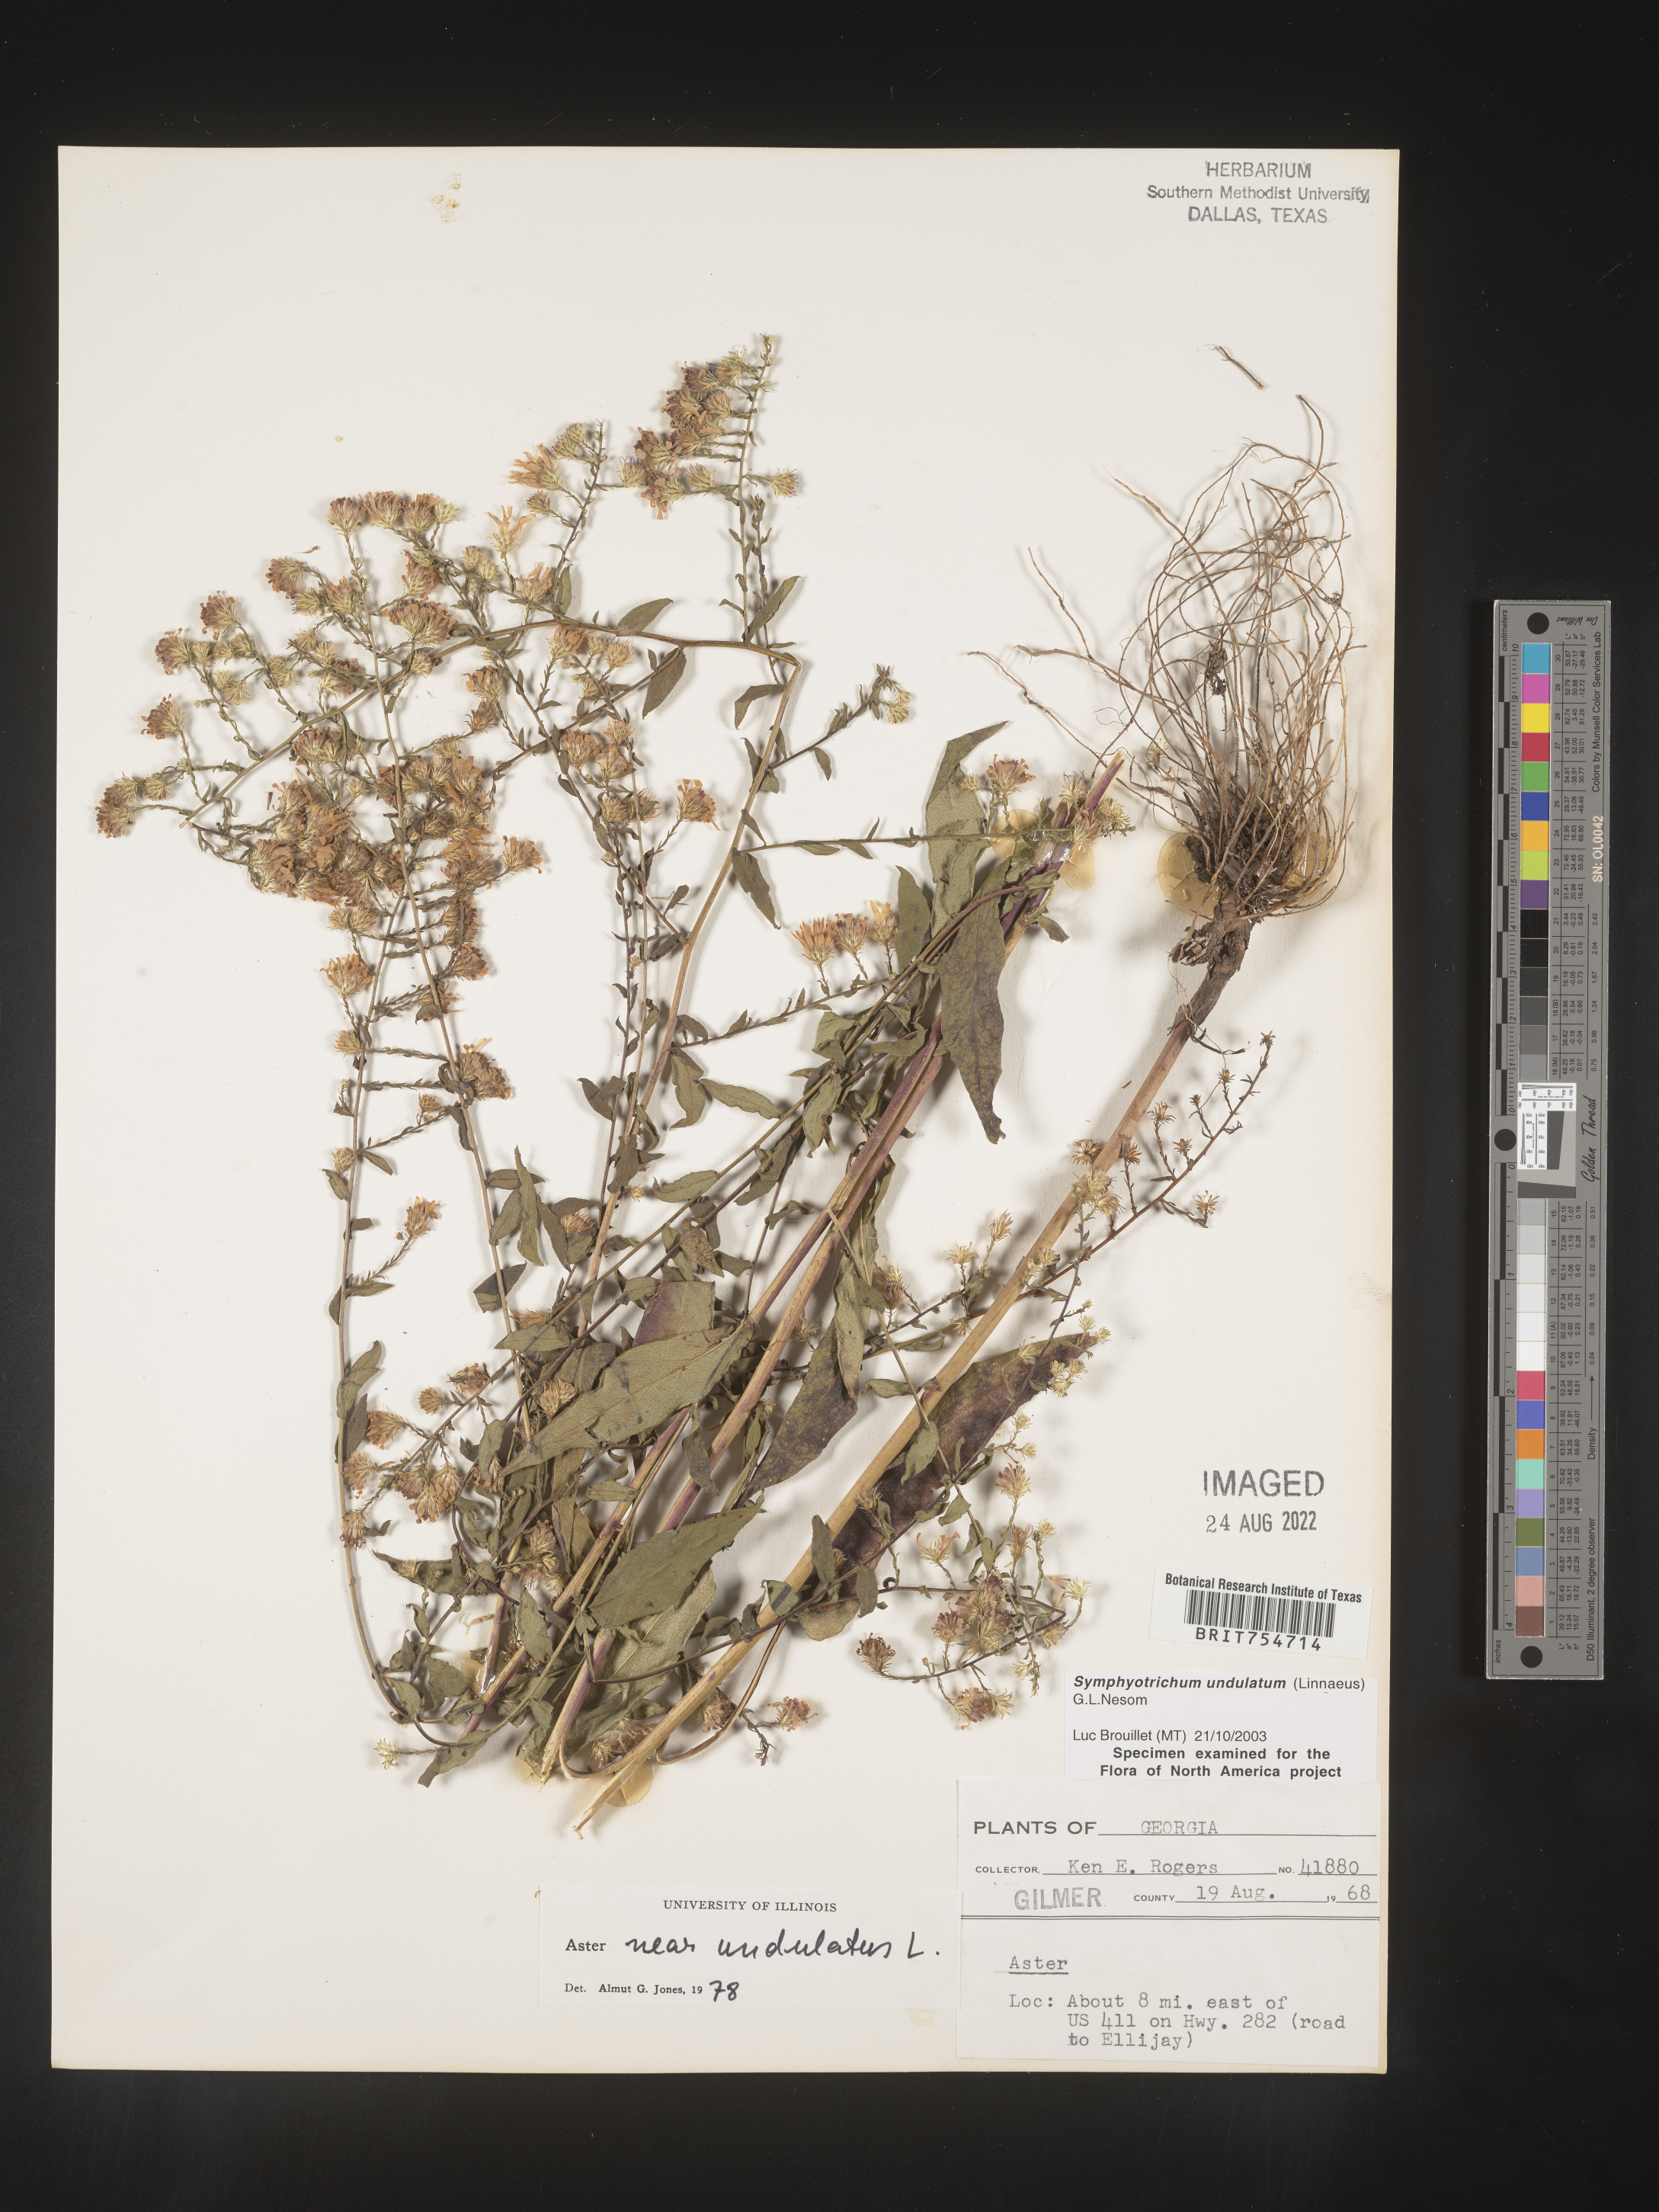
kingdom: Plantae
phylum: Tracheophyta
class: Magnoliopsida
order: Asterales
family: Asteraceae
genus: Symphyotrichum
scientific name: Symphyotrichum undulatum
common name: Clasping heart-leaf aster
